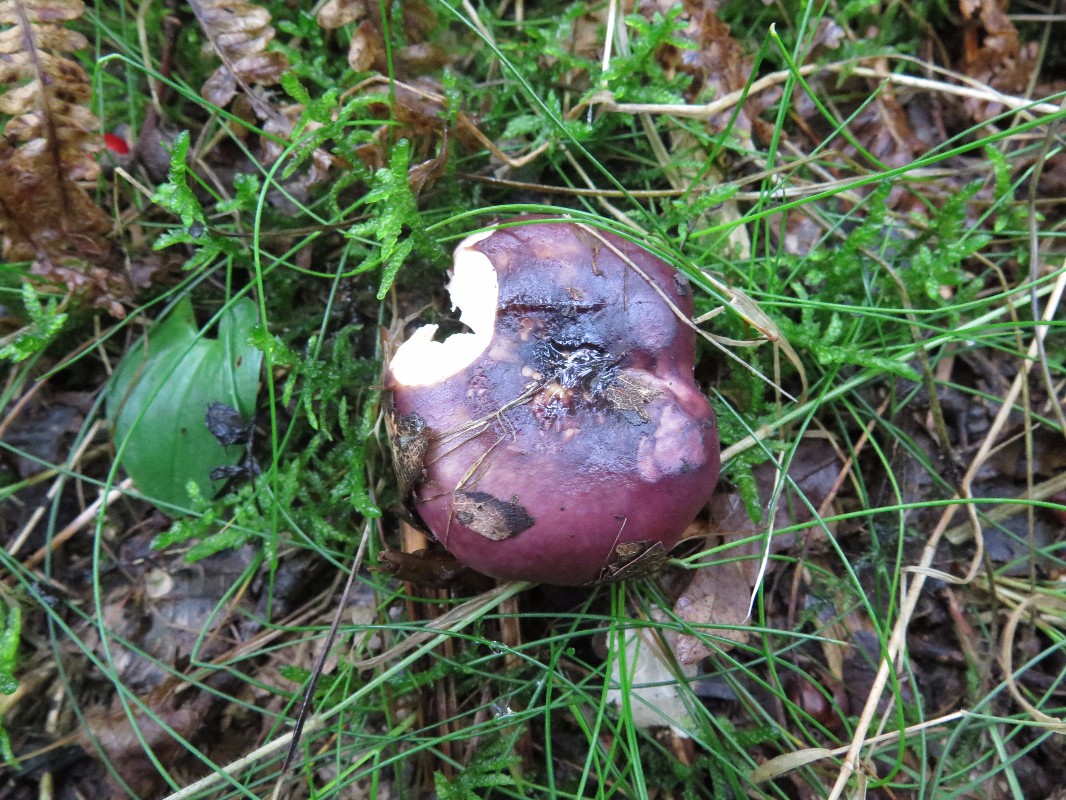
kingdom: Fungi
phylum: Basidiomycota
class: Agaricomycetes
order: Russulales
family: Russulaceae
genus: Russula
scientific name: Russula atropurpurea
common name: purpurbroget skørhat
